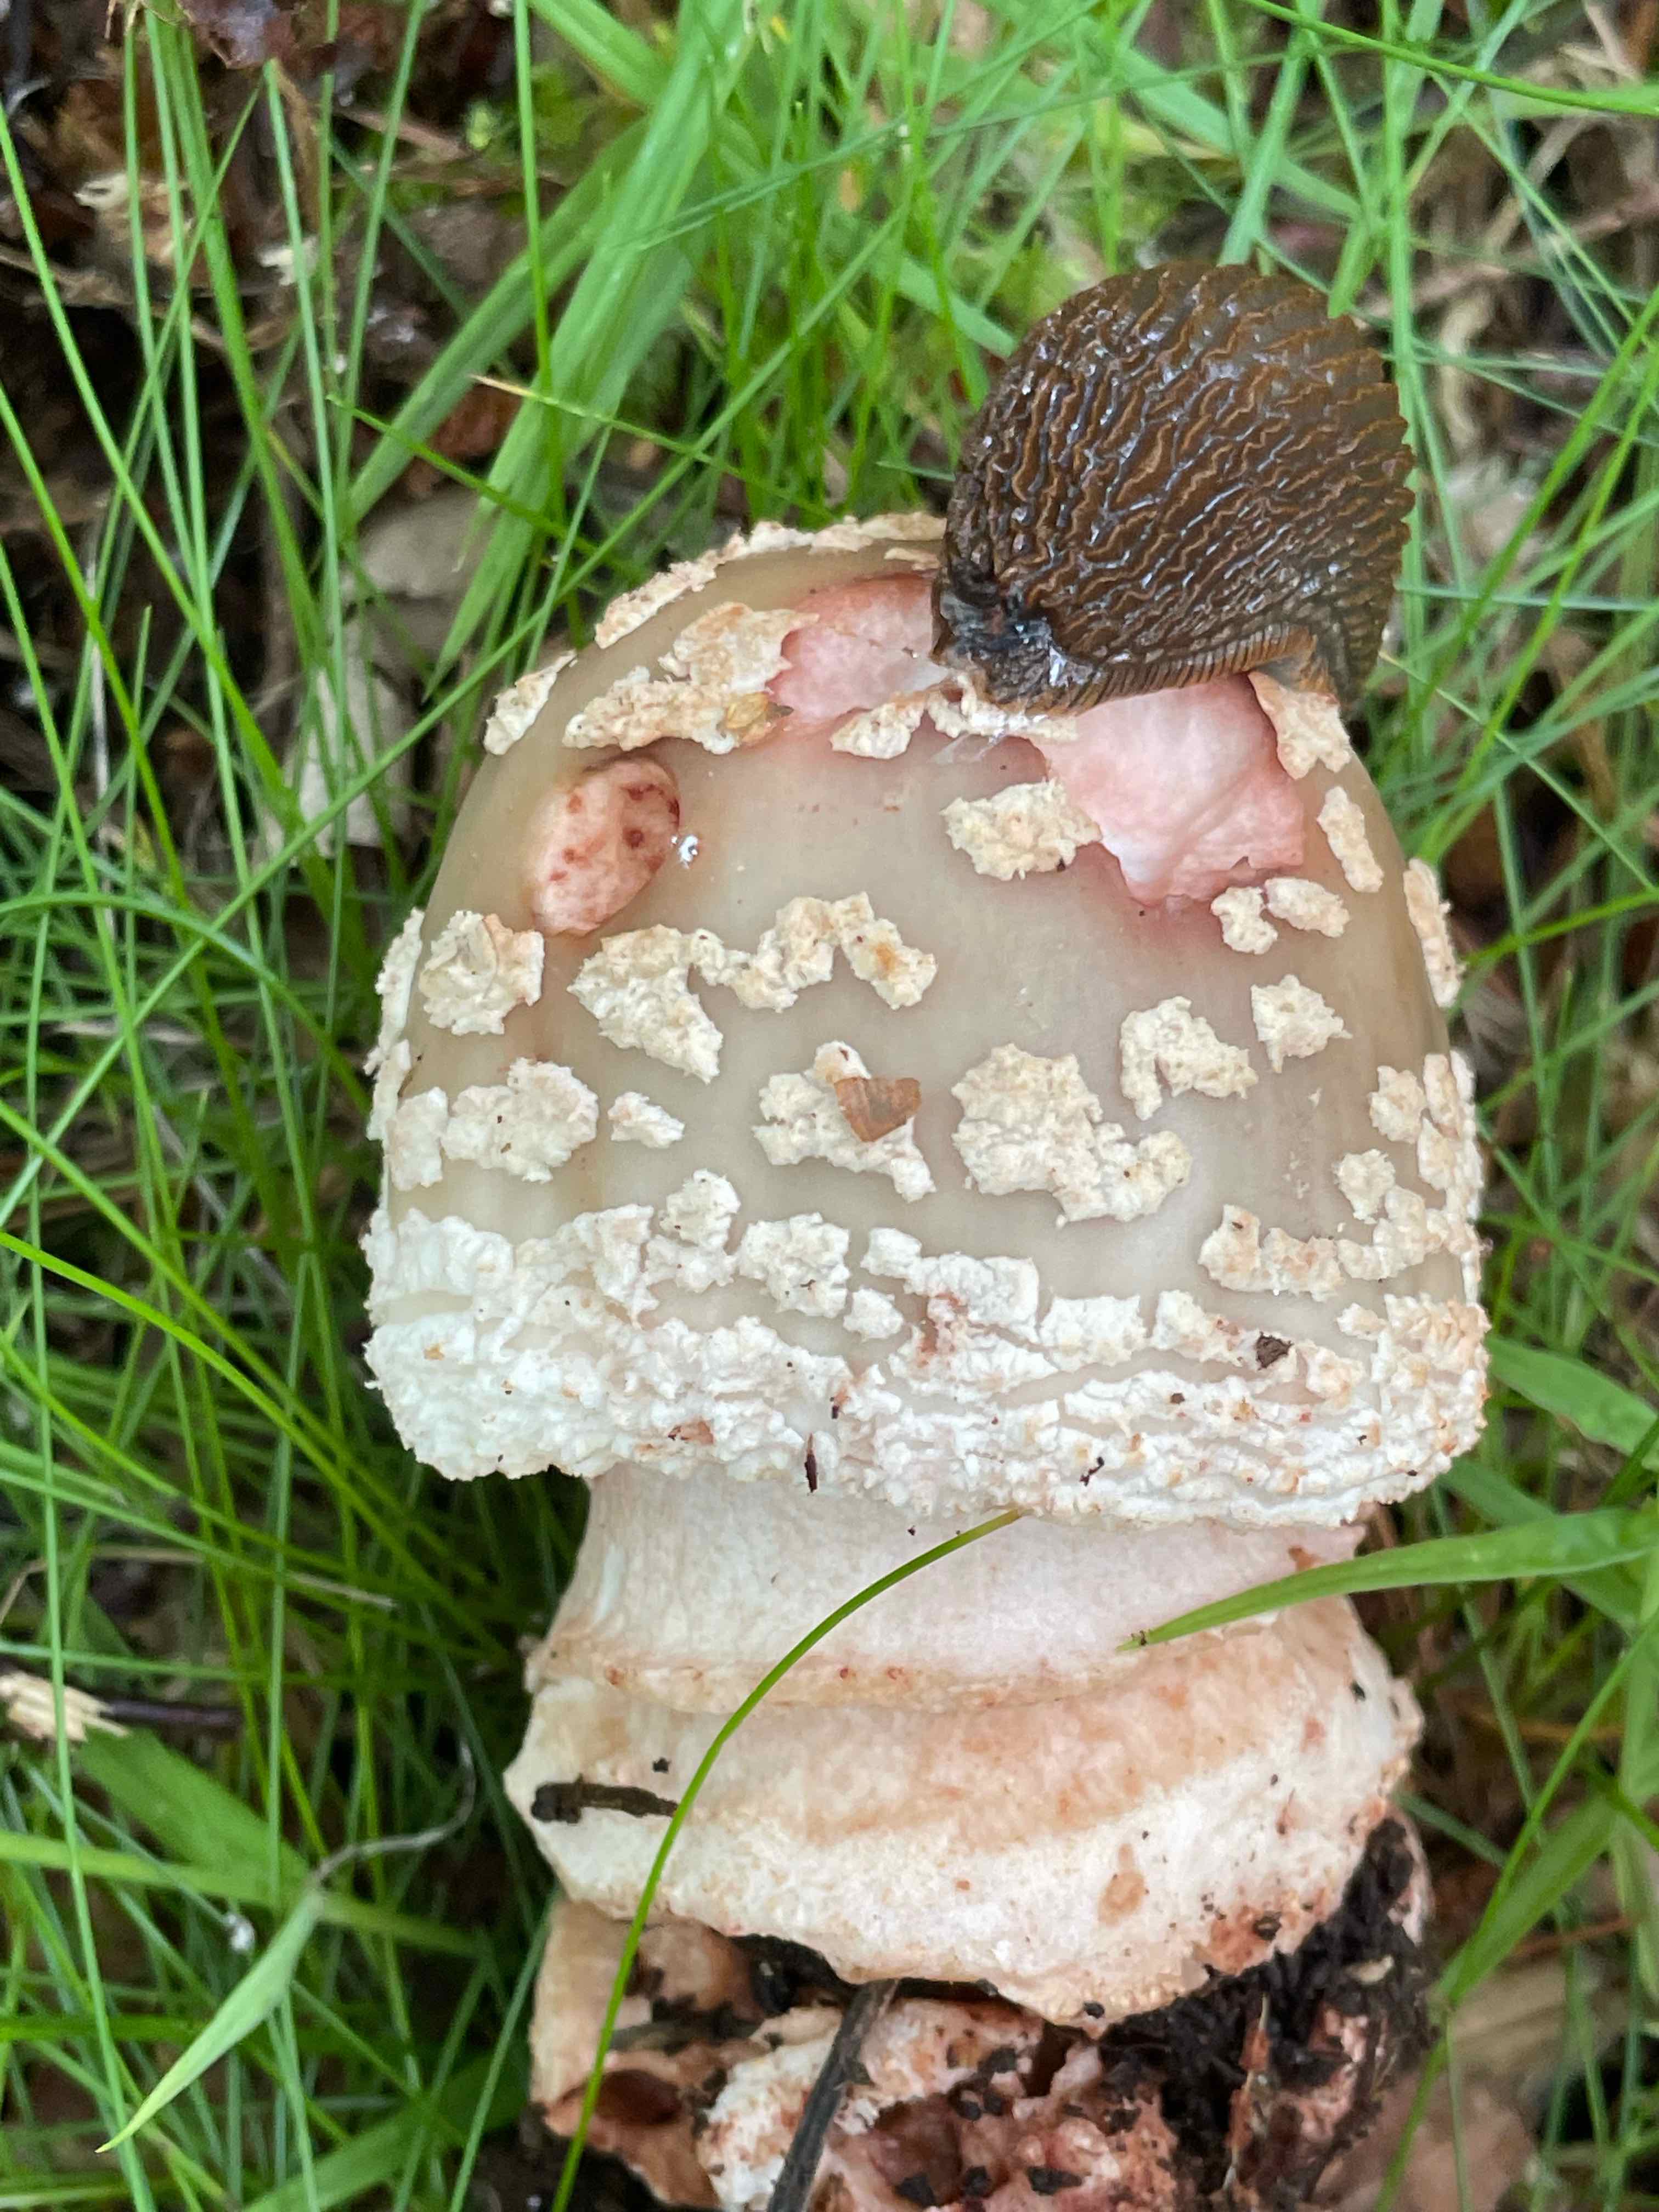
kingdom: Fungi
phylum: Basidiomycota
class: Agaricomycetes
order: Agaricales
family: Amanitaceae
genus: Amanita
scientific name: Amanita rubescens
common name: rødmende fluesvamp
